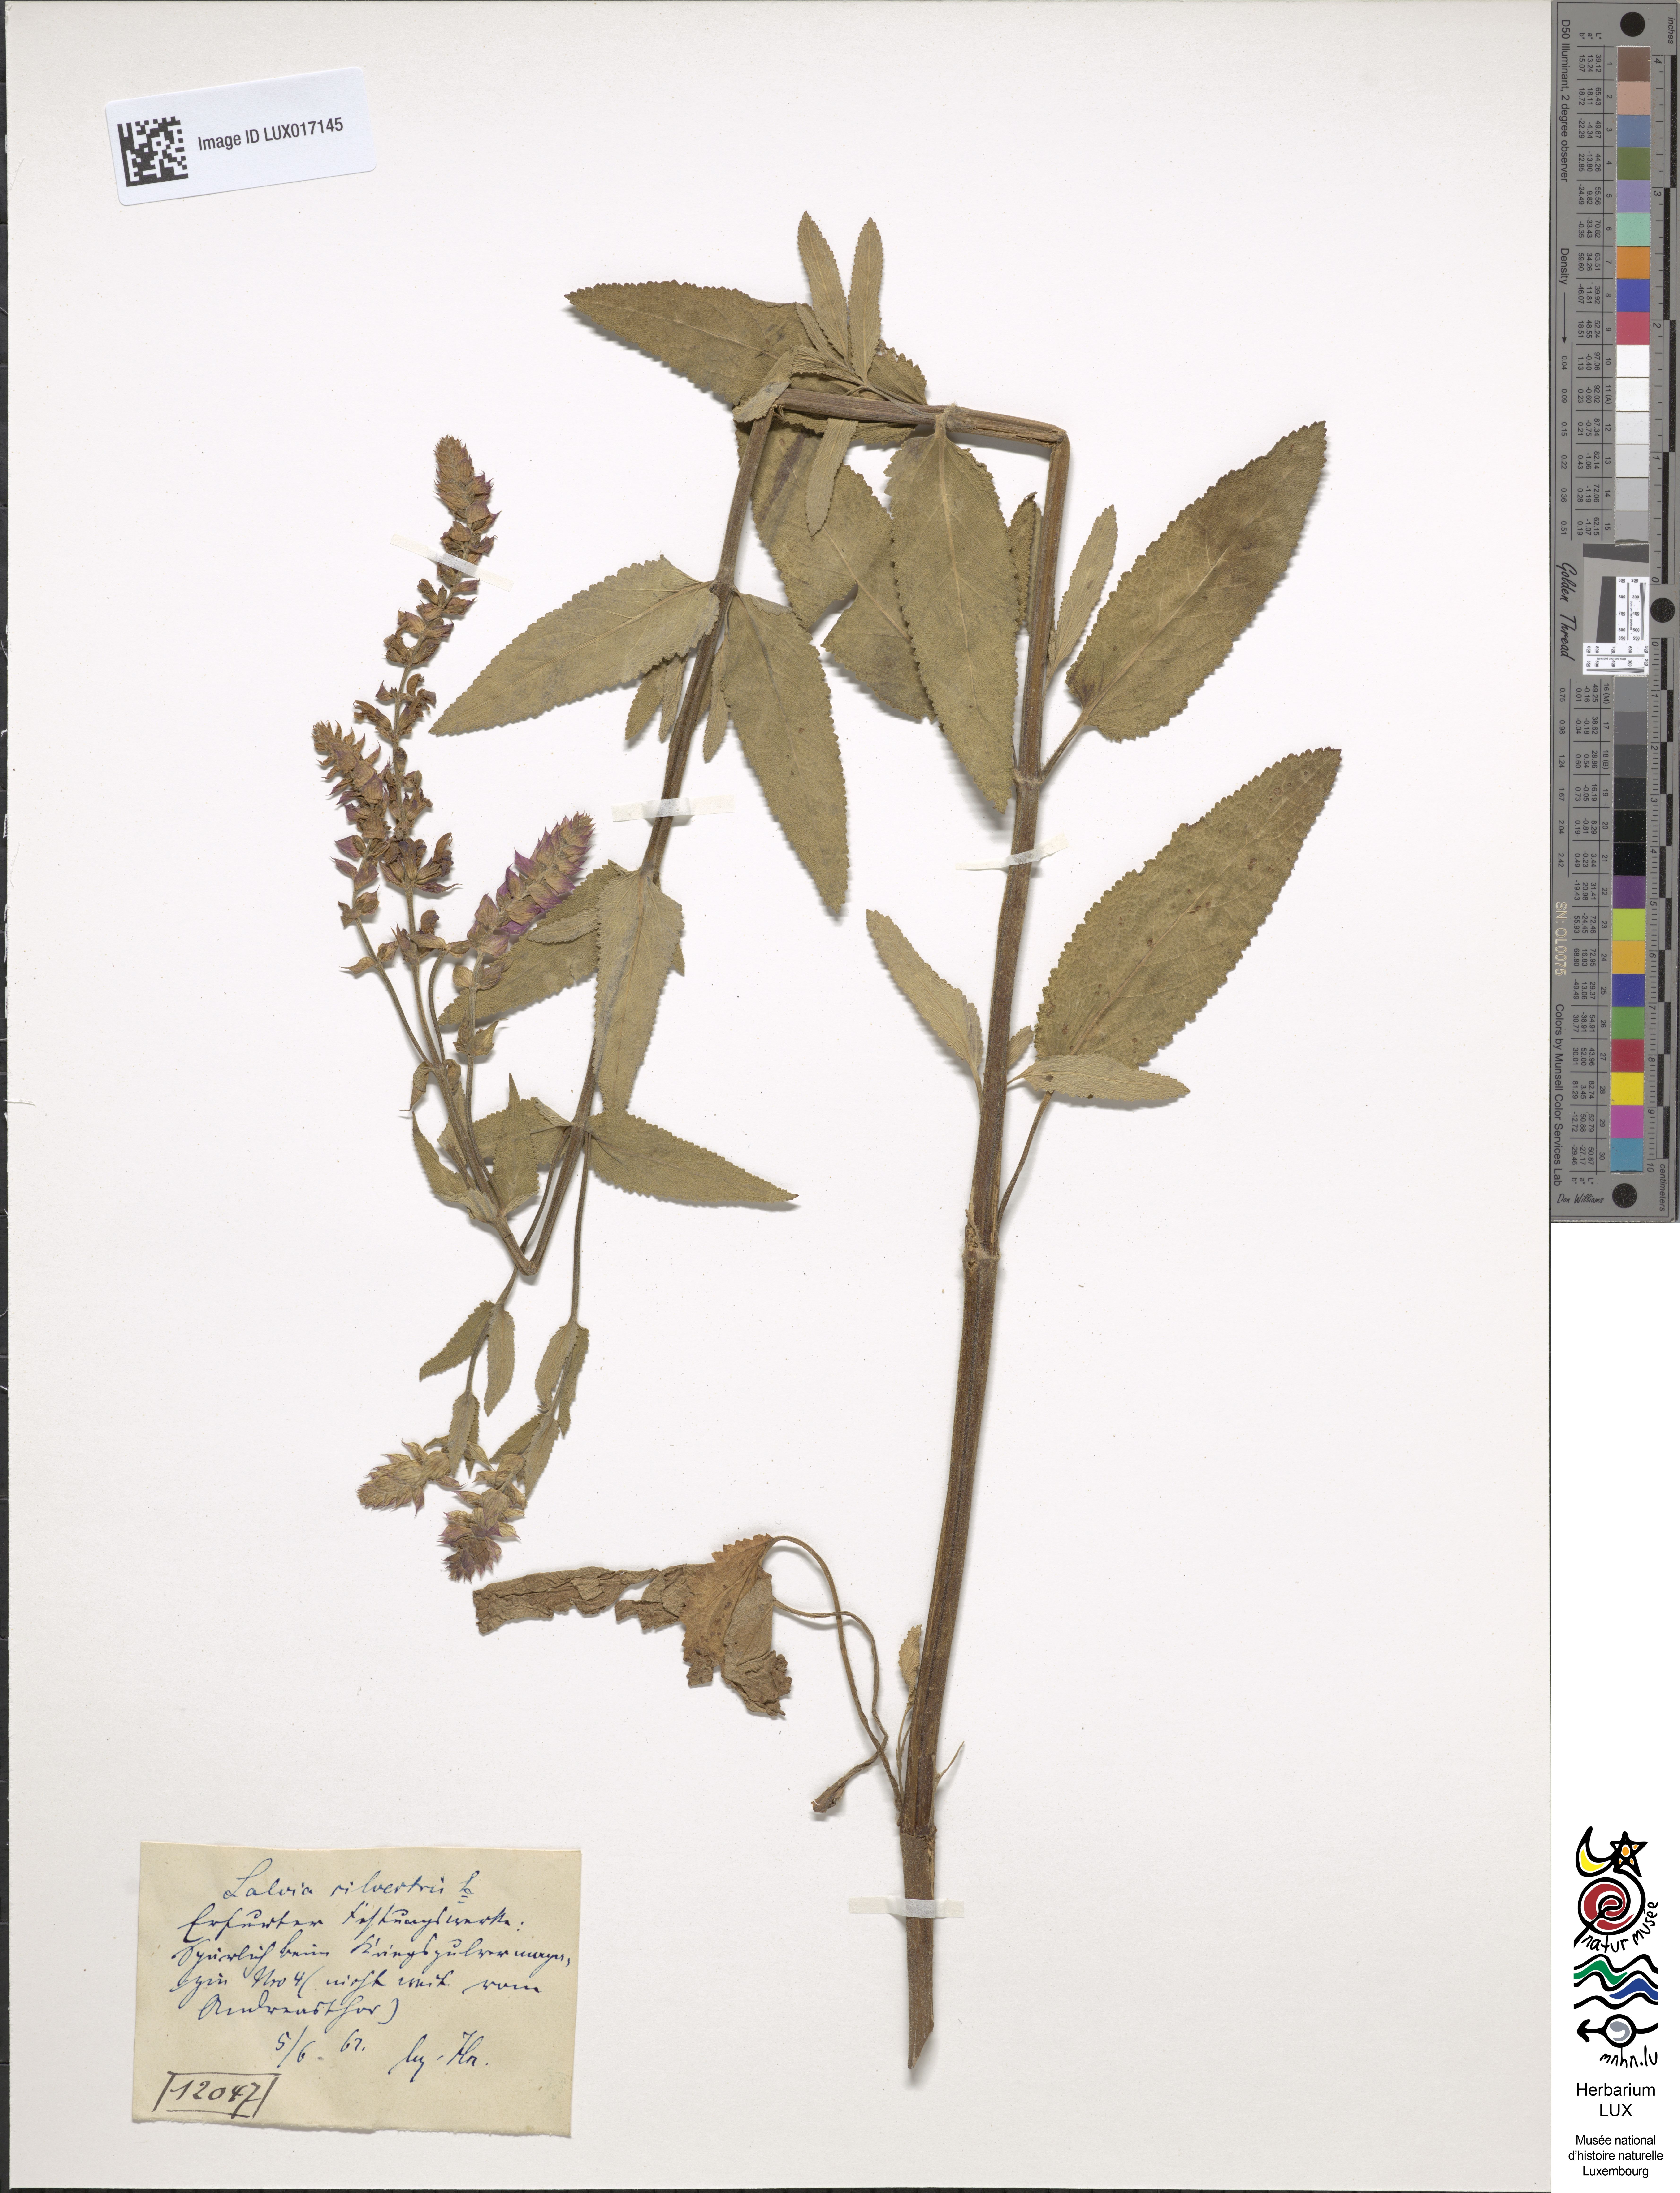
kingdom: Plantae
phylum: Tracheophyta
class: Magnoliopsida
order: Lamiales
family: Lamiaceae
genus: Salvia
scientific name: Salvia nemorosa
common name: Balkan clary
